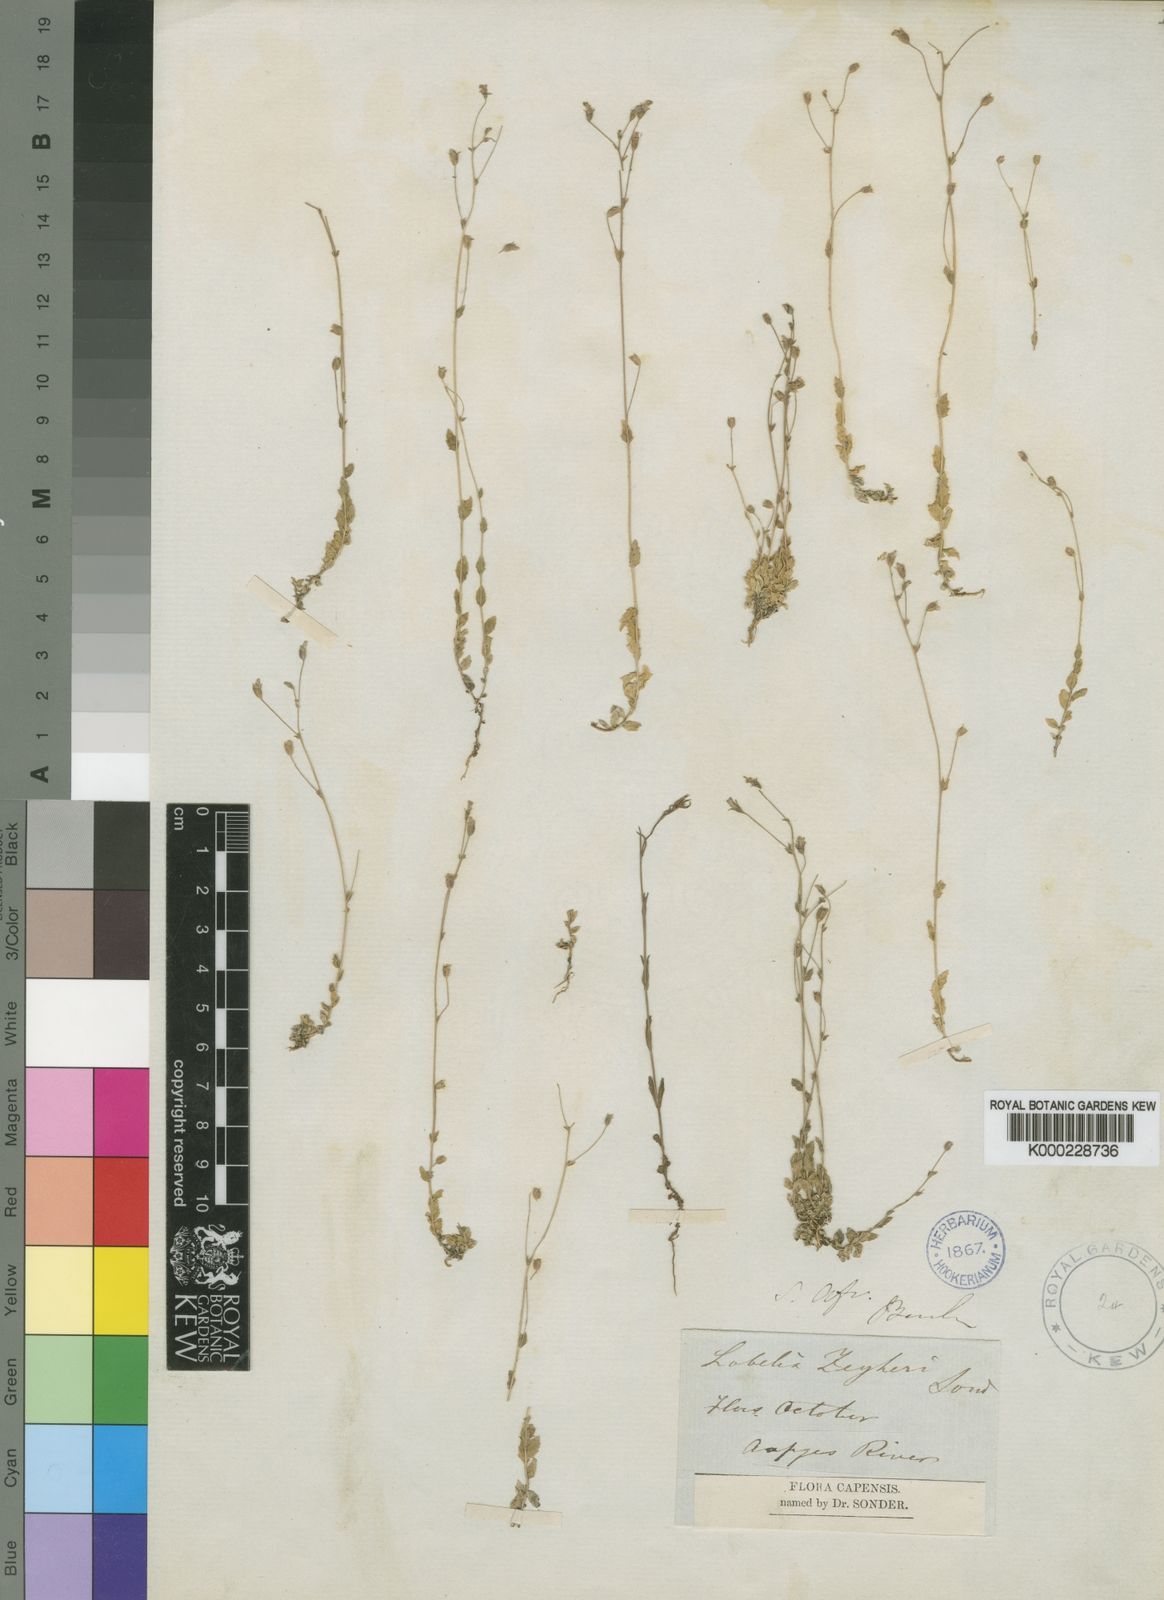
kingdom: Plantae
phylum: Tracheophyta
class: Magnoliopsida
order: Asterales
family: Campanulaceae
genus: Monopsis
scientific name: Monopsis zeyheri
